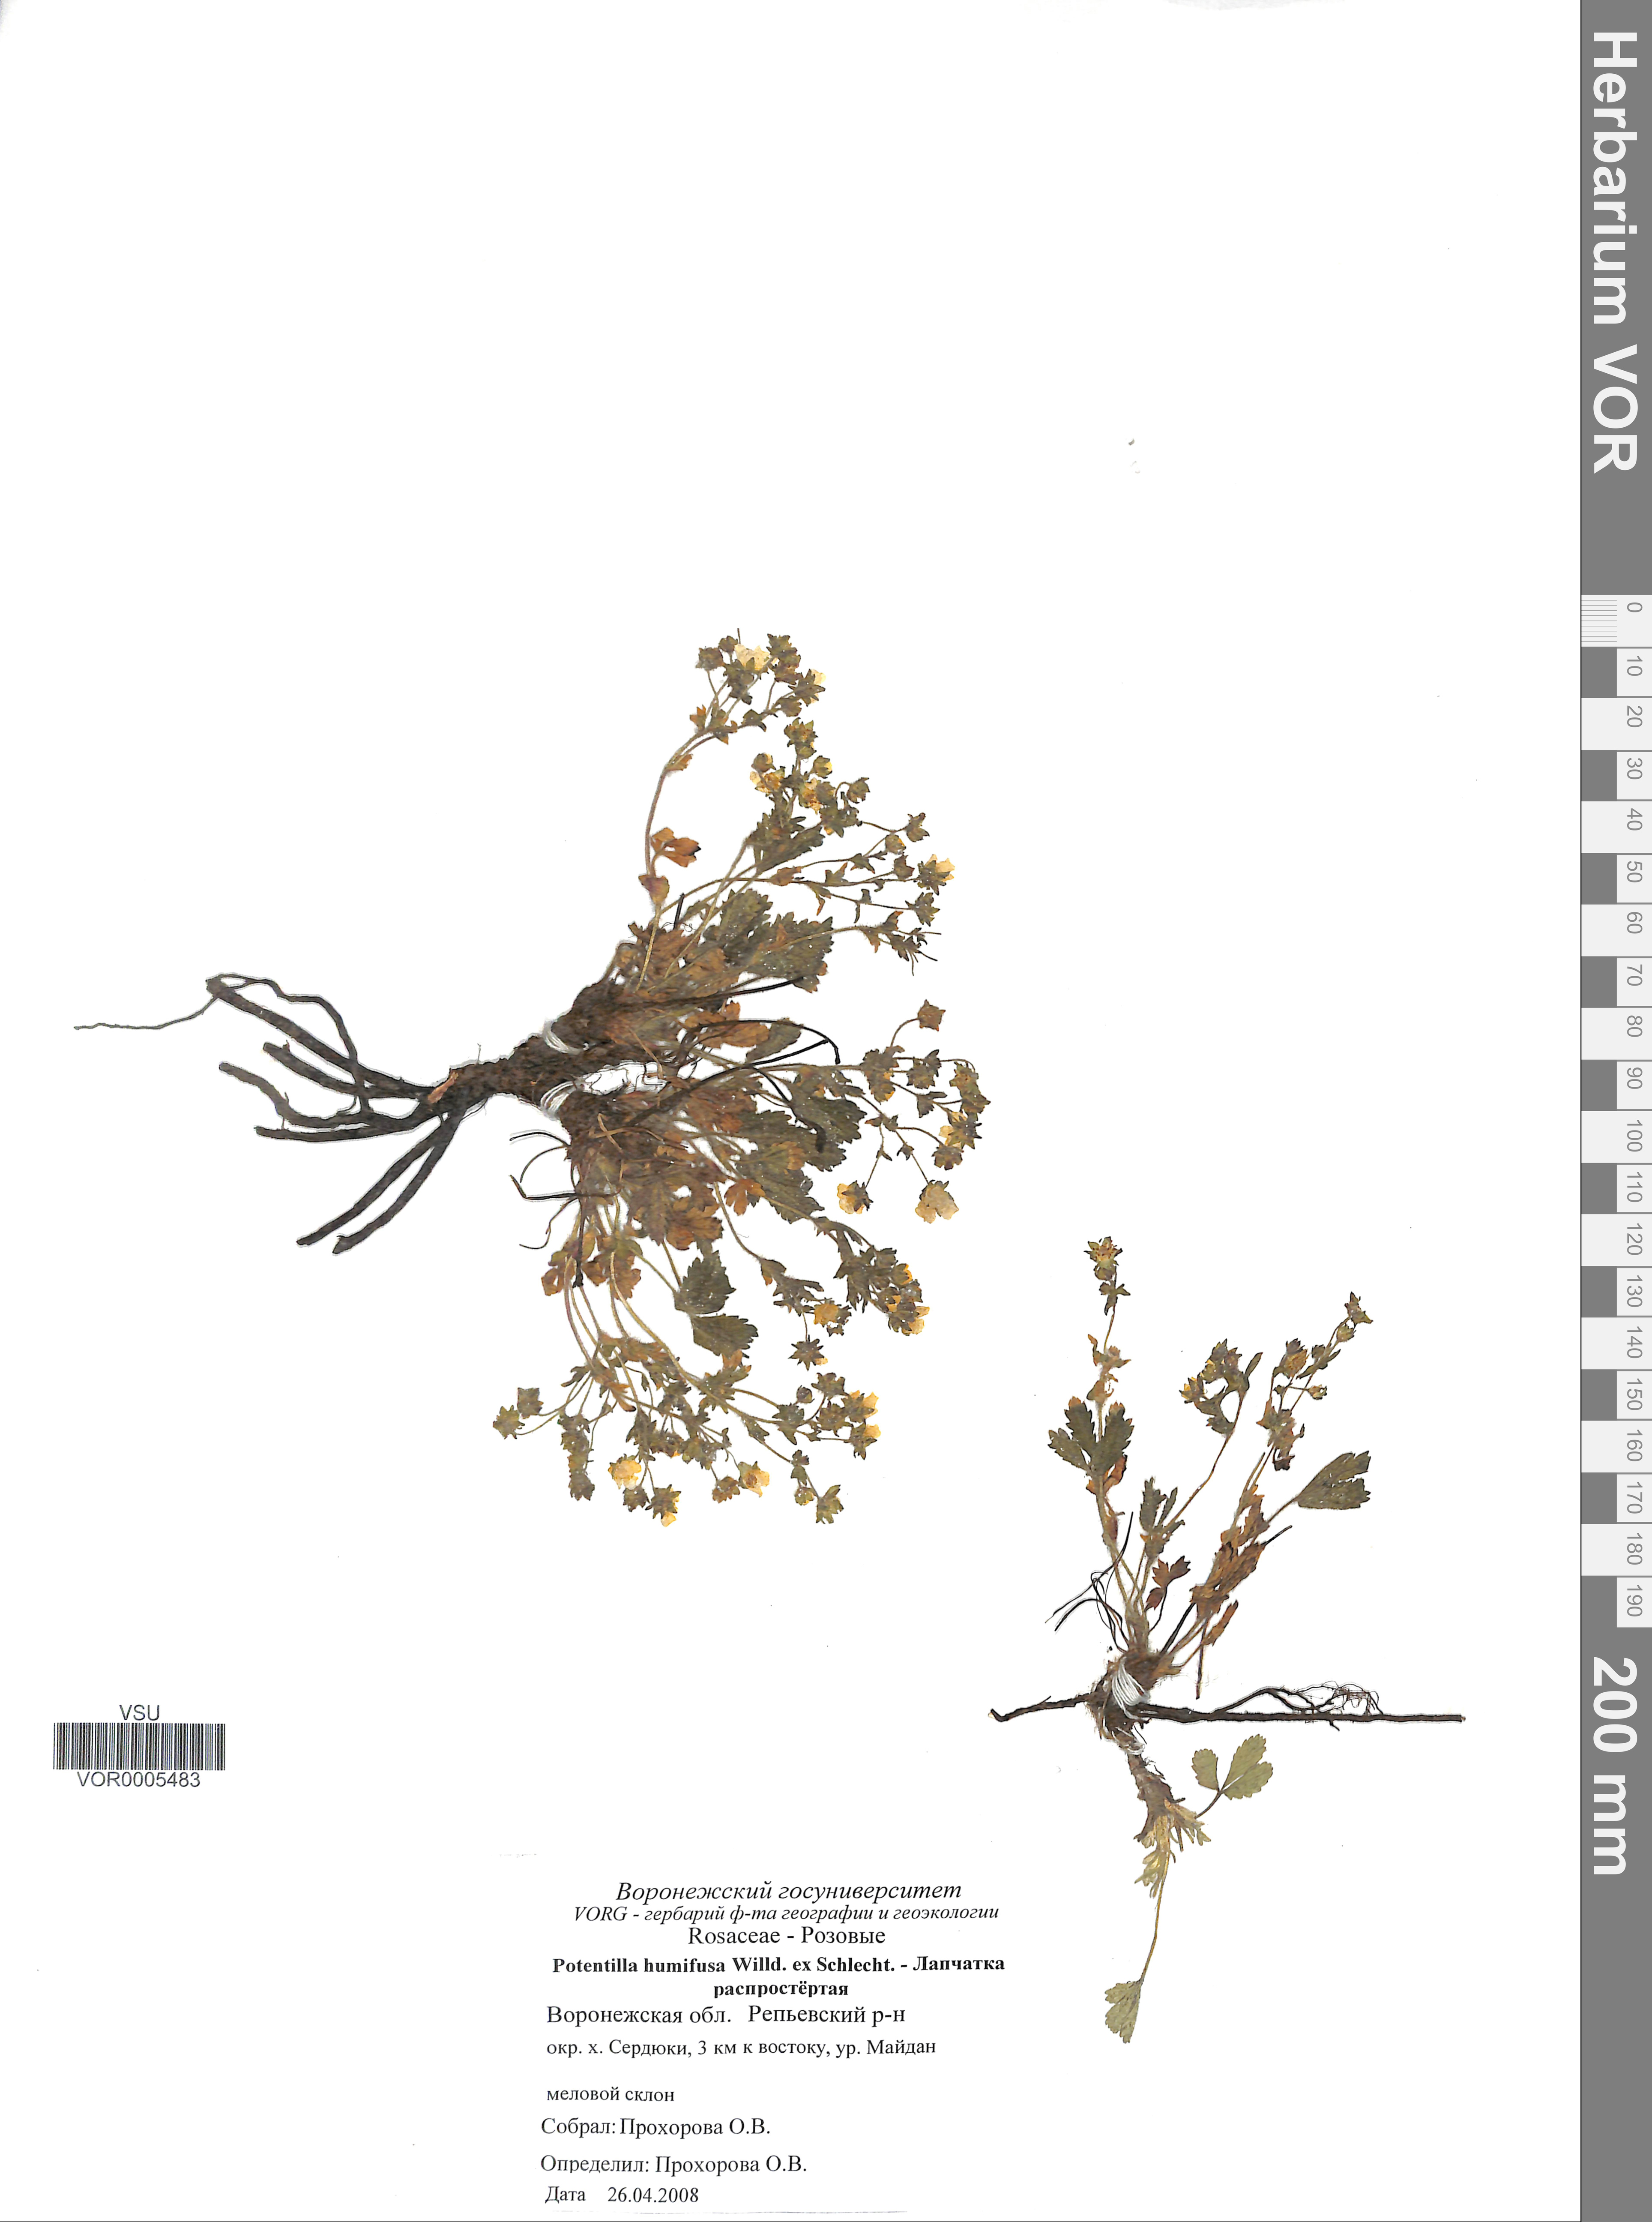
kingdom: Plantae
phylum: Tracheophyta
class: Magnoliopsida
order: Rosales
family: Rosaceae
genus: Potentilla
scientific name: Potentilla humifusa
